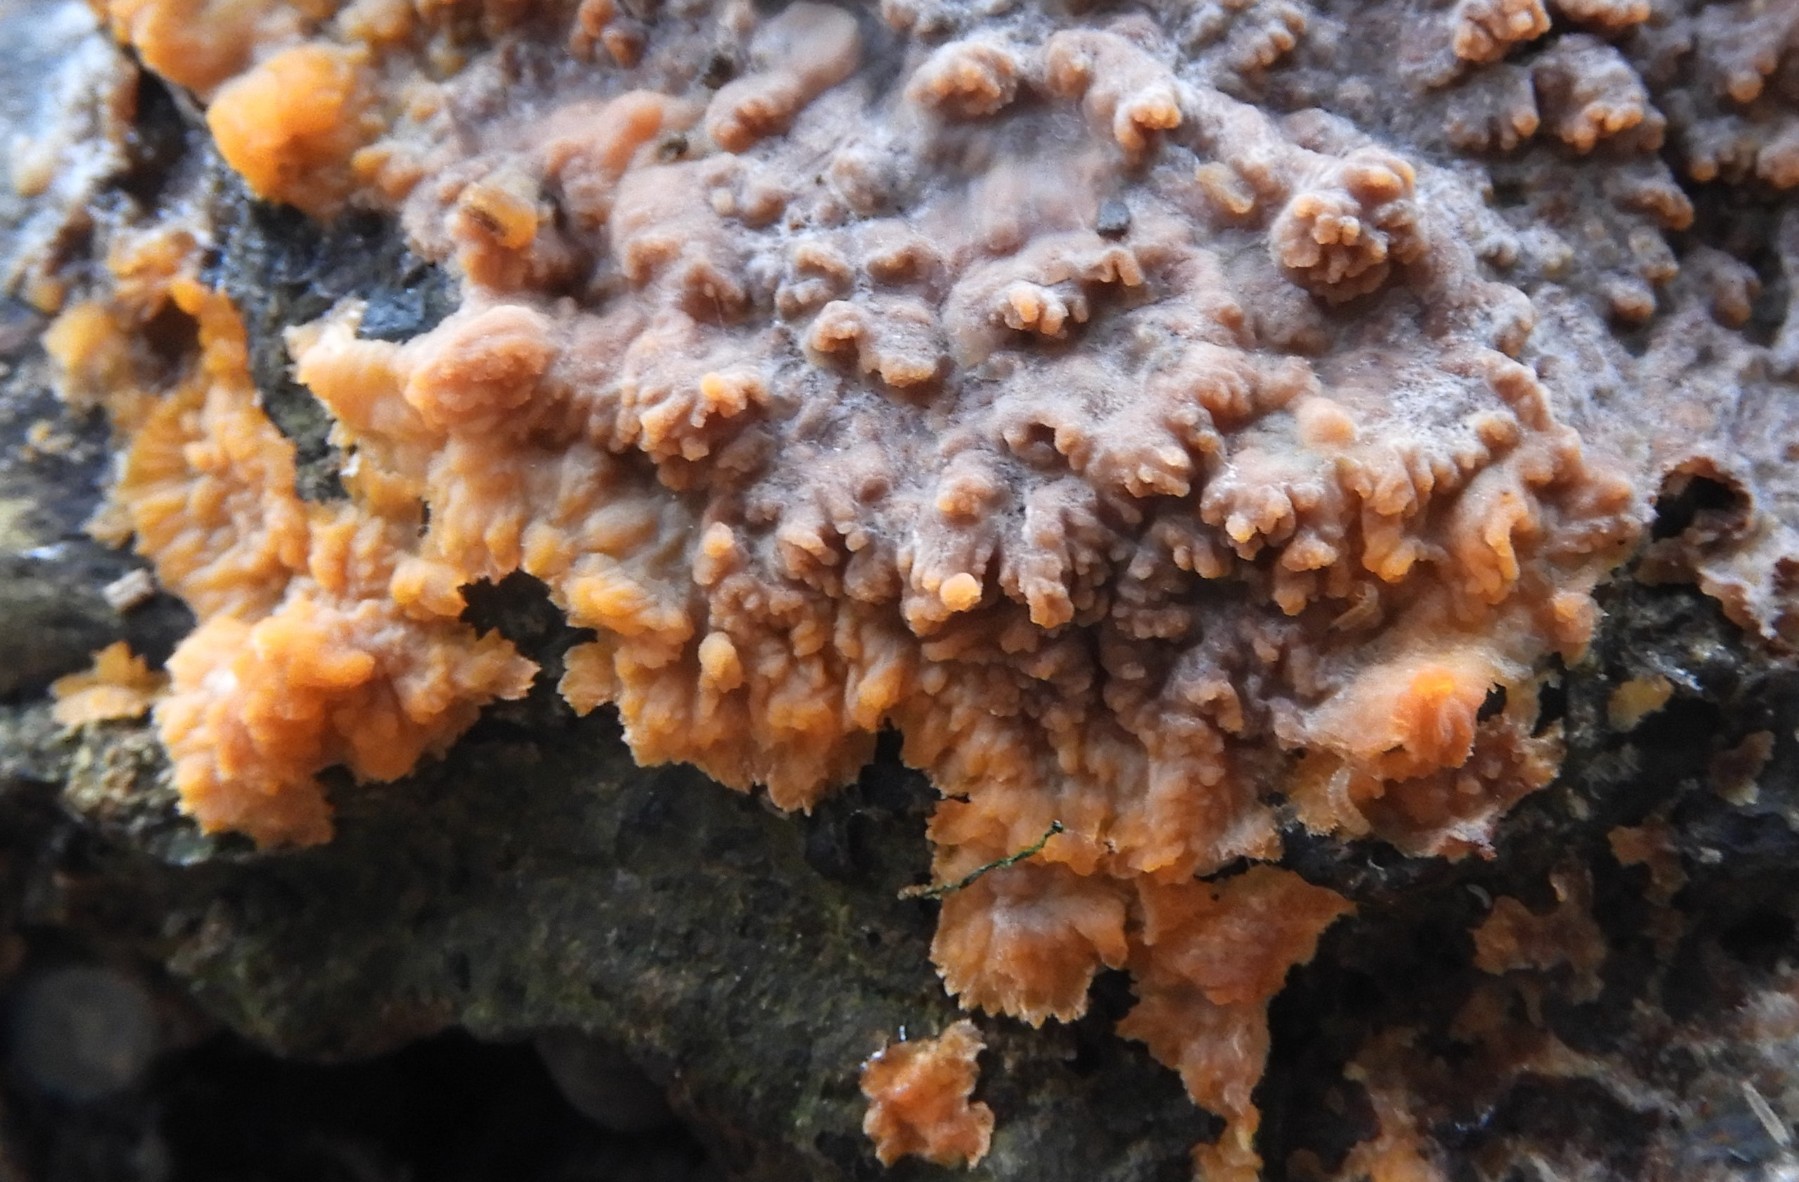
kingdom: Fungi
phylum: Basidiomycota
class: Agaricomycetes
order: Polyporales
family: Meruliaceae
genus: Phlebia
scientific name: Phlebia radiata
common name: stråle-åresvamp
